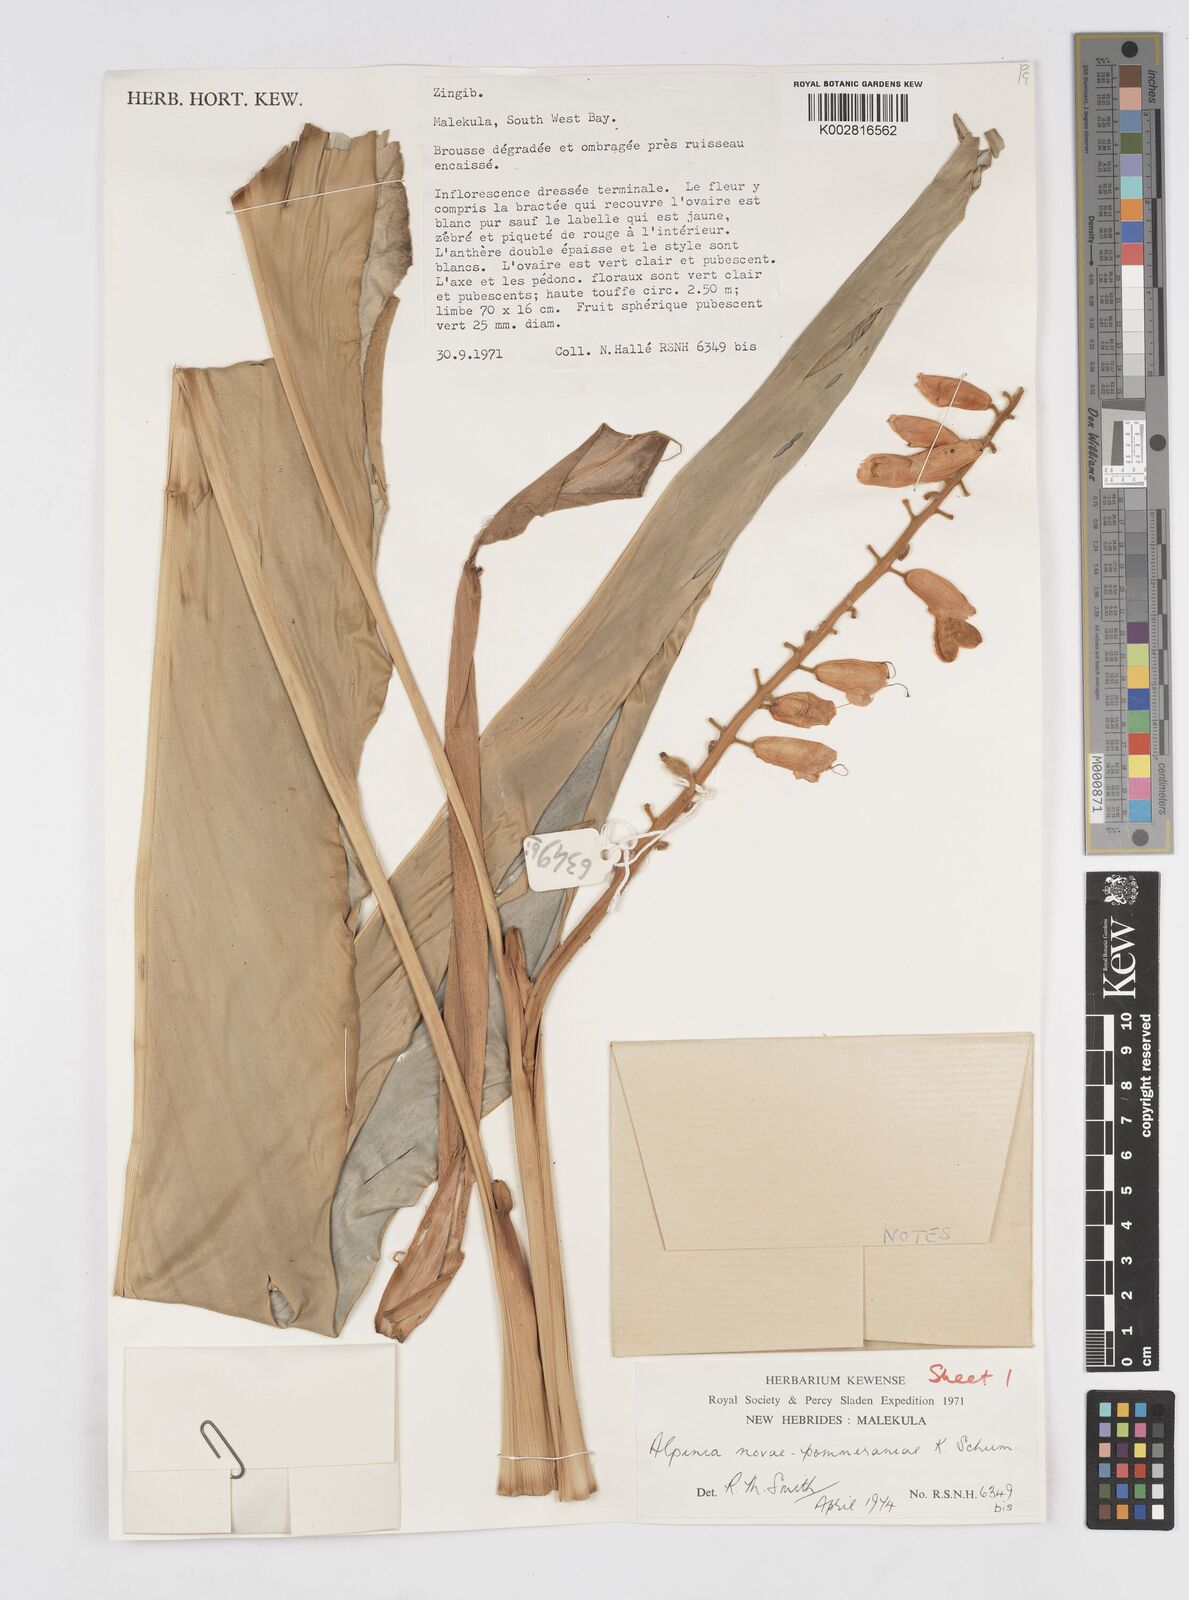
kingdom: Plantae
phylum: Tracheophyta
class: Liliopsida
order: Zingiberales
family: Zingiberaceae
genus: Alpinia
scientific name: Alpinia novae-pommeraniae
